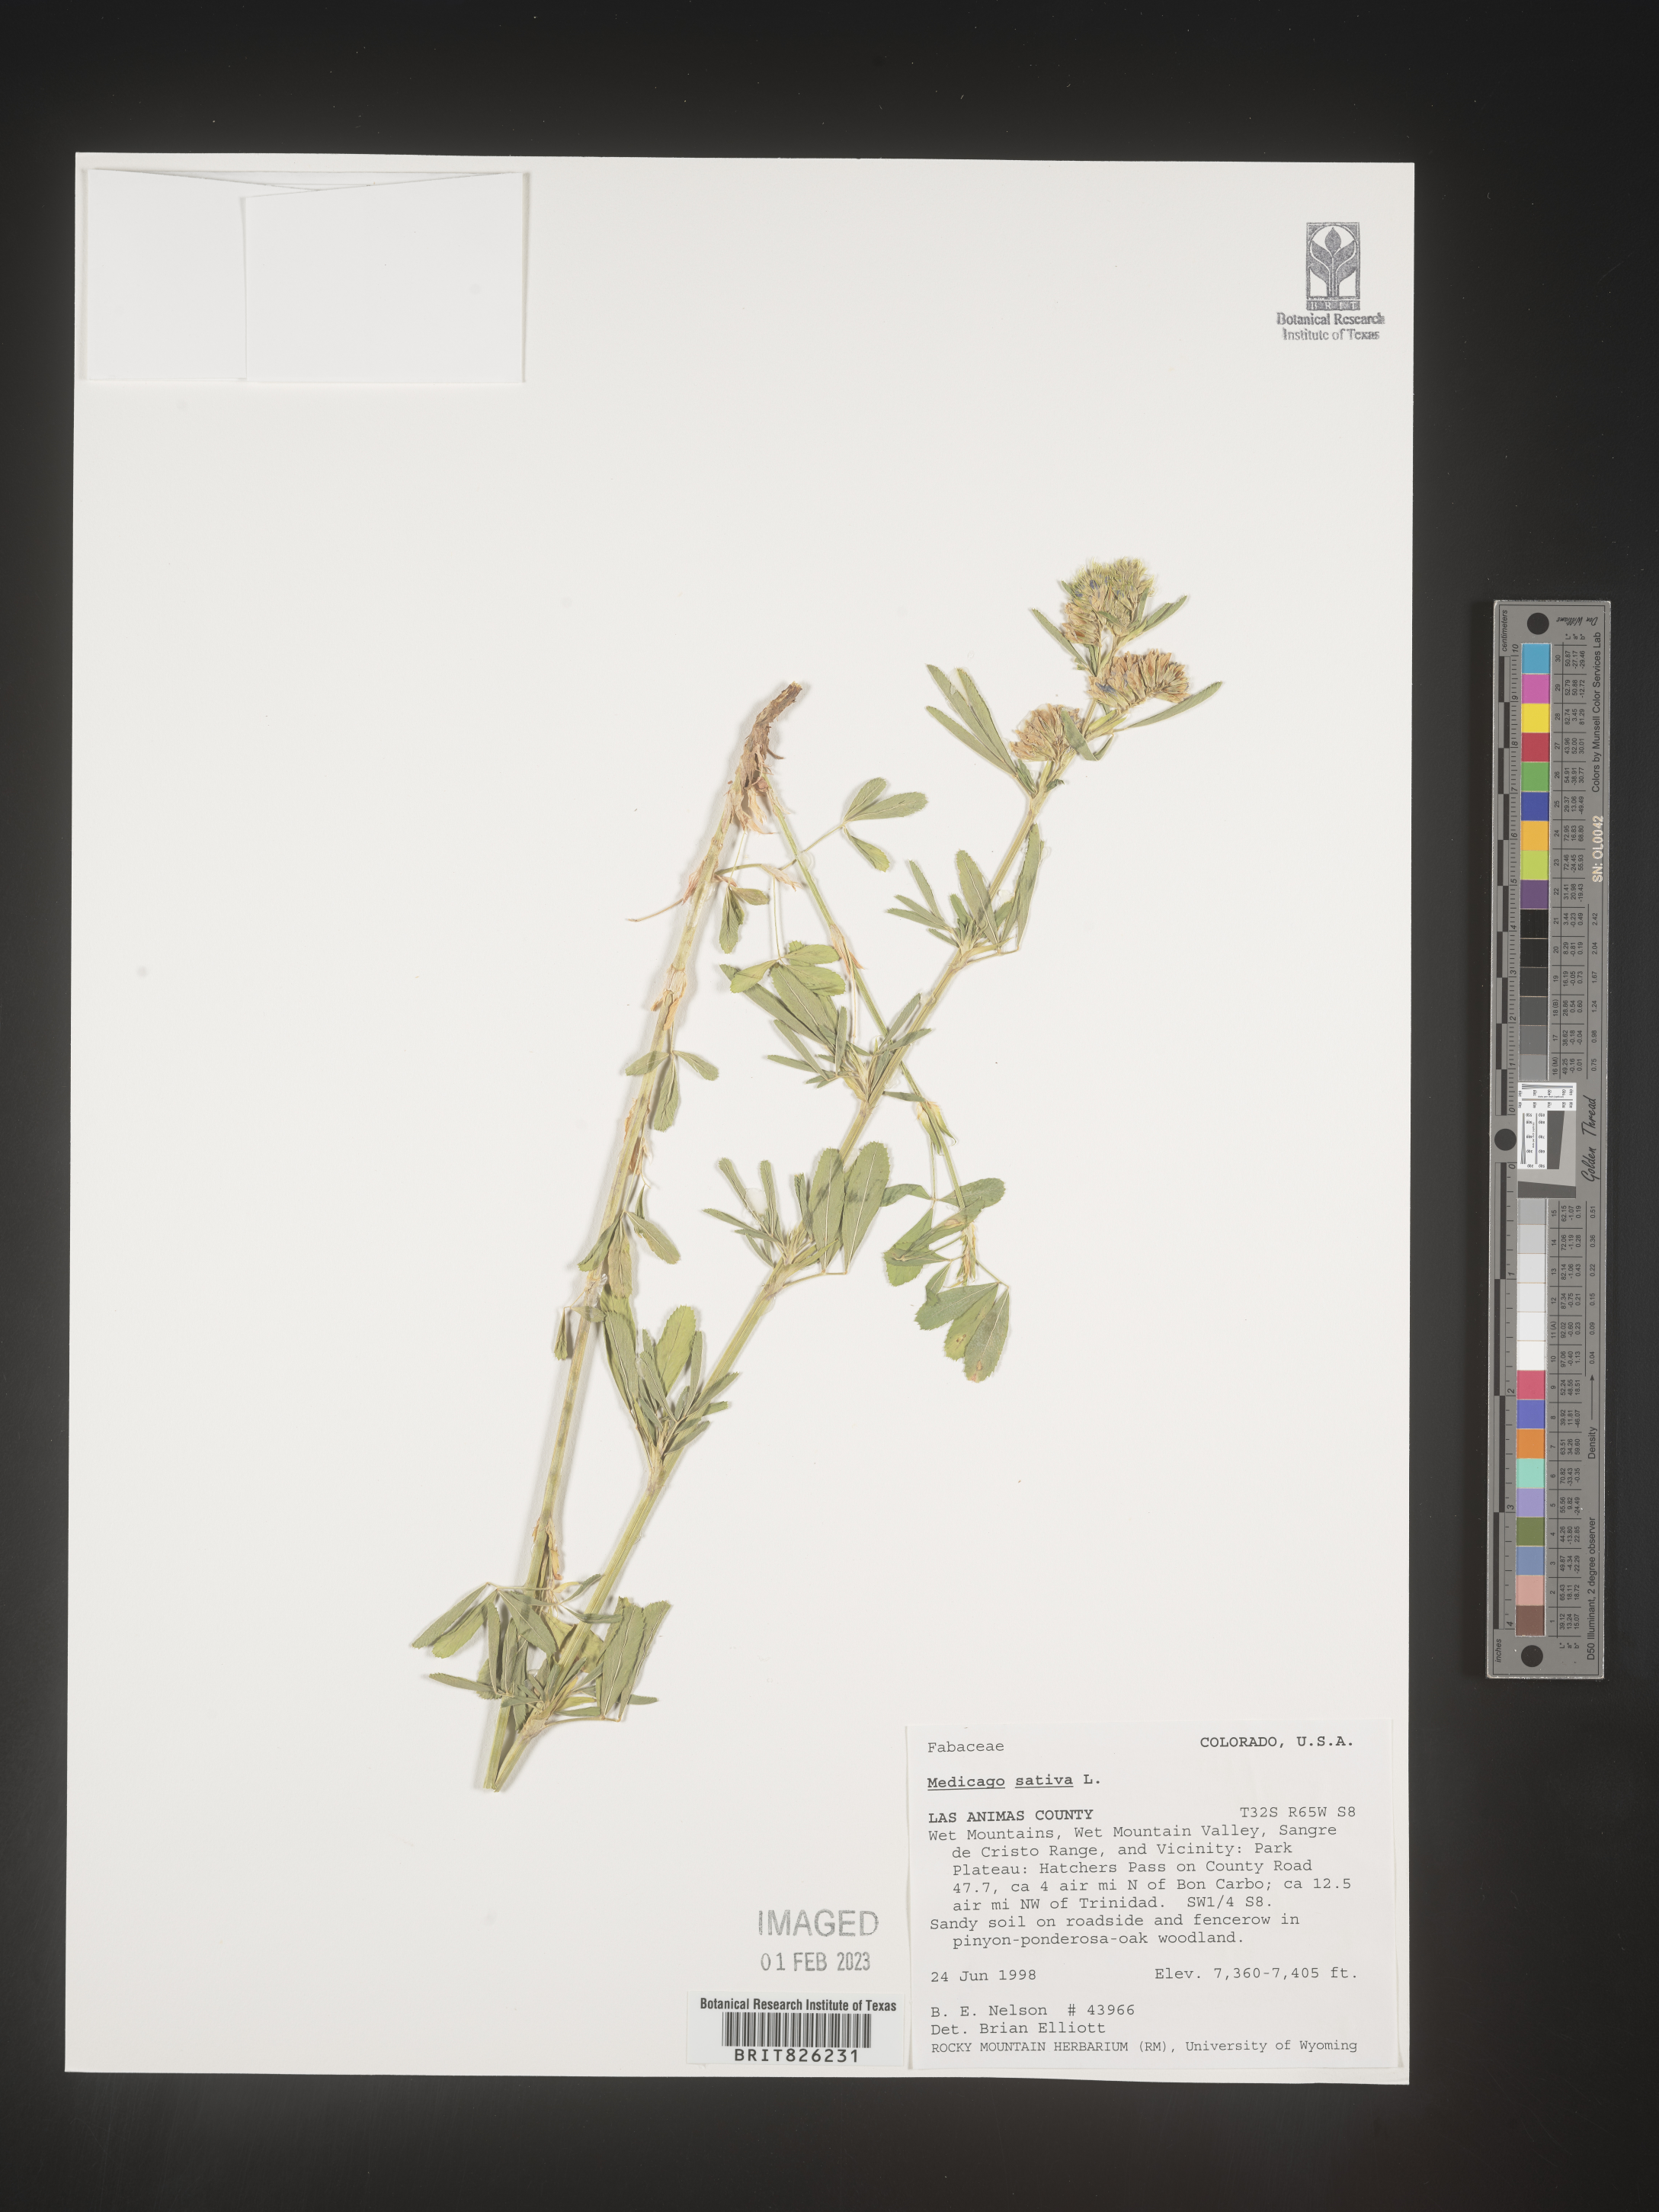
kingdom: Plantae
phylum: Tracheophyta
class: Magnoliopsida
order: Fabales
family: Fabaceae
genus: Medicago
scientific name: Medicago sativa
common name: Alfalfa
